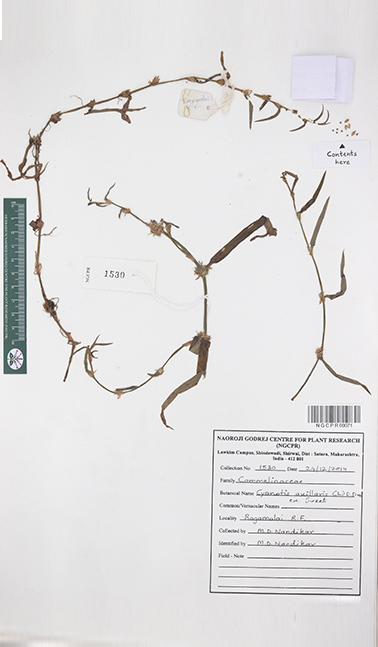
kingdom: Plantae
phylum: Tracheophyta
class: Liliopsida
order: Commelinales
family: Commelinaceae
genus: Cyanotis
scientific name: Cyanotis axillaris
